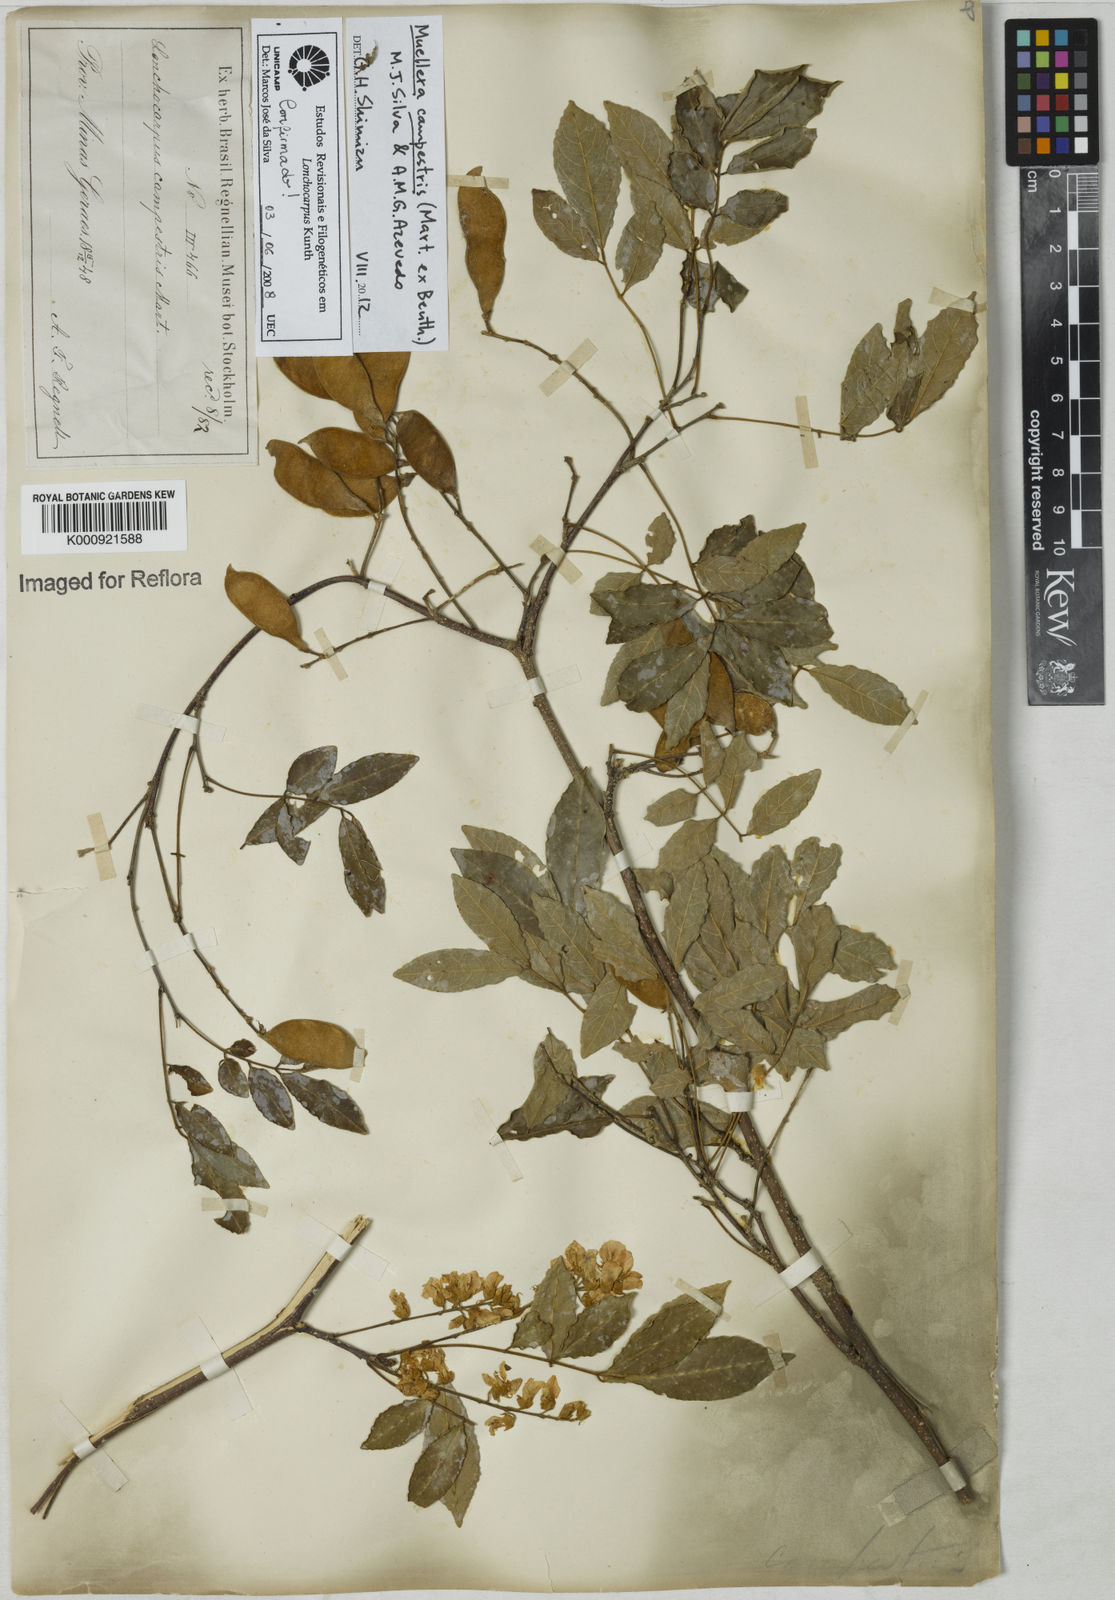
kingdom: Plantae
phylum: Tracheophyta
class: Magnoliopsida
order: Fabales
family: Fabaceae
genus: Muellera
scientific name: Muellera campestris
